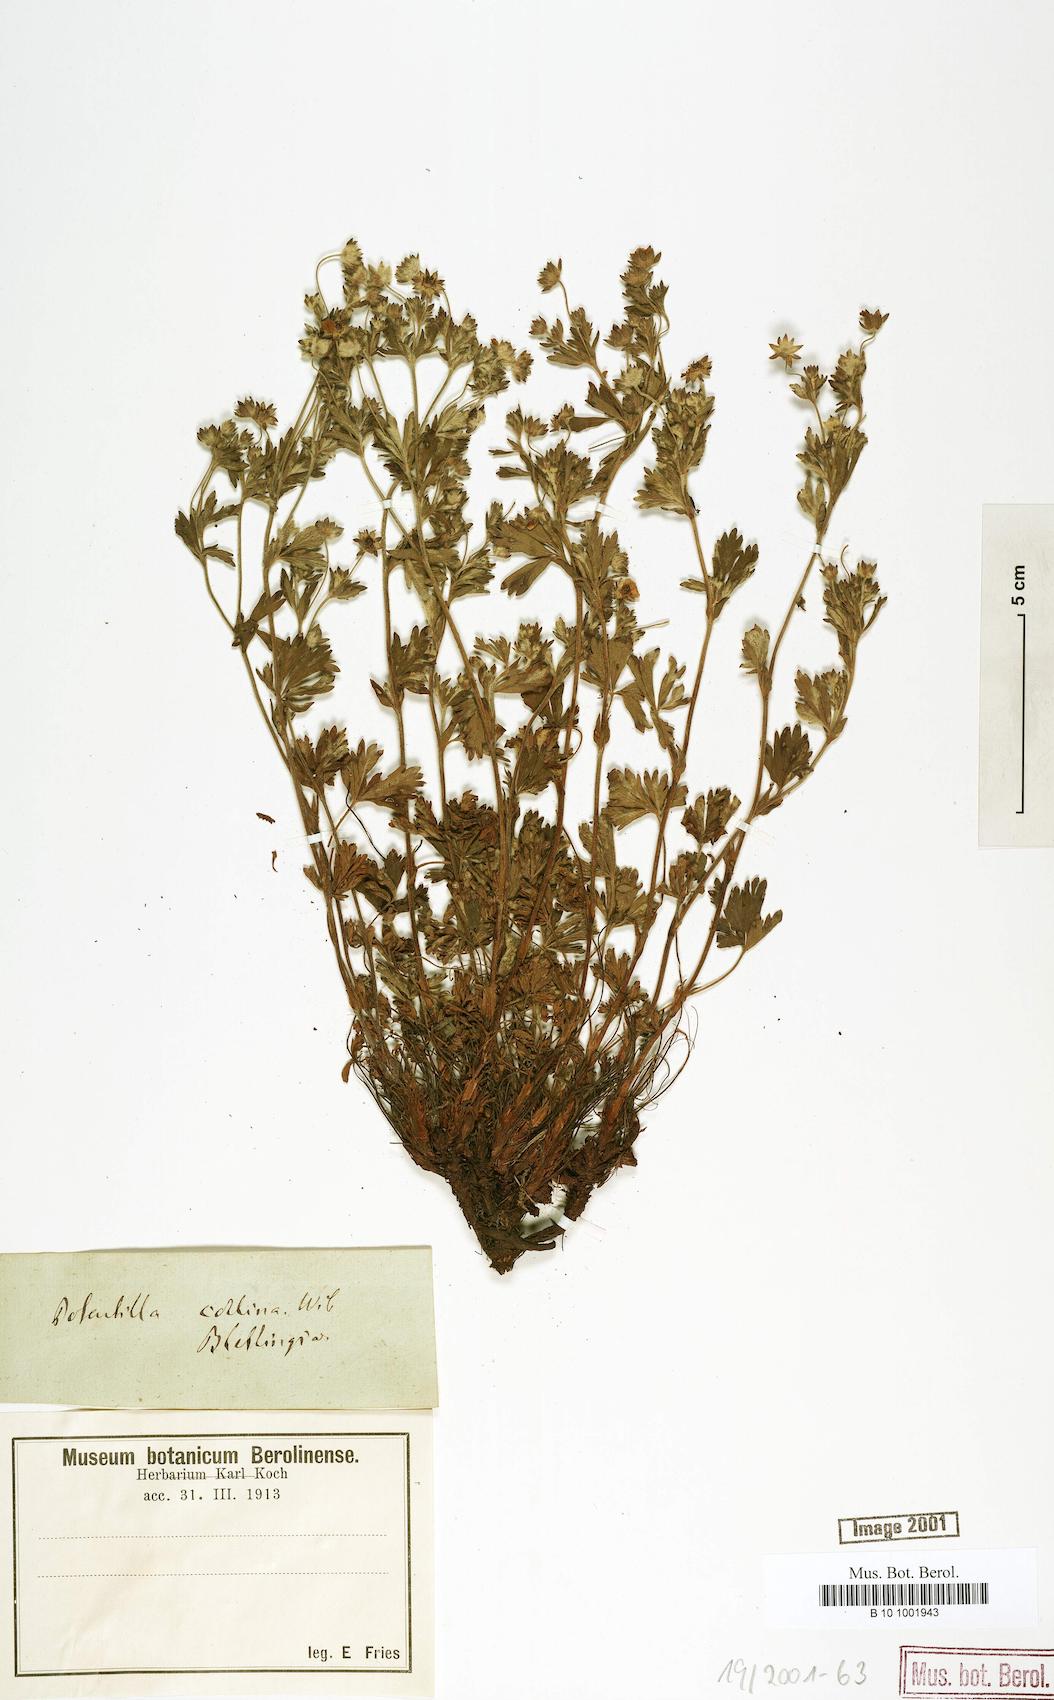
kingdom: Plantae
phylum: Tracheophyta
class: Magnoliopsida
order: Rosales
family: Rosaceae
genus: Potentilla
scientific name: Potentilla collina
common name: Palmleaf cinquefoil
